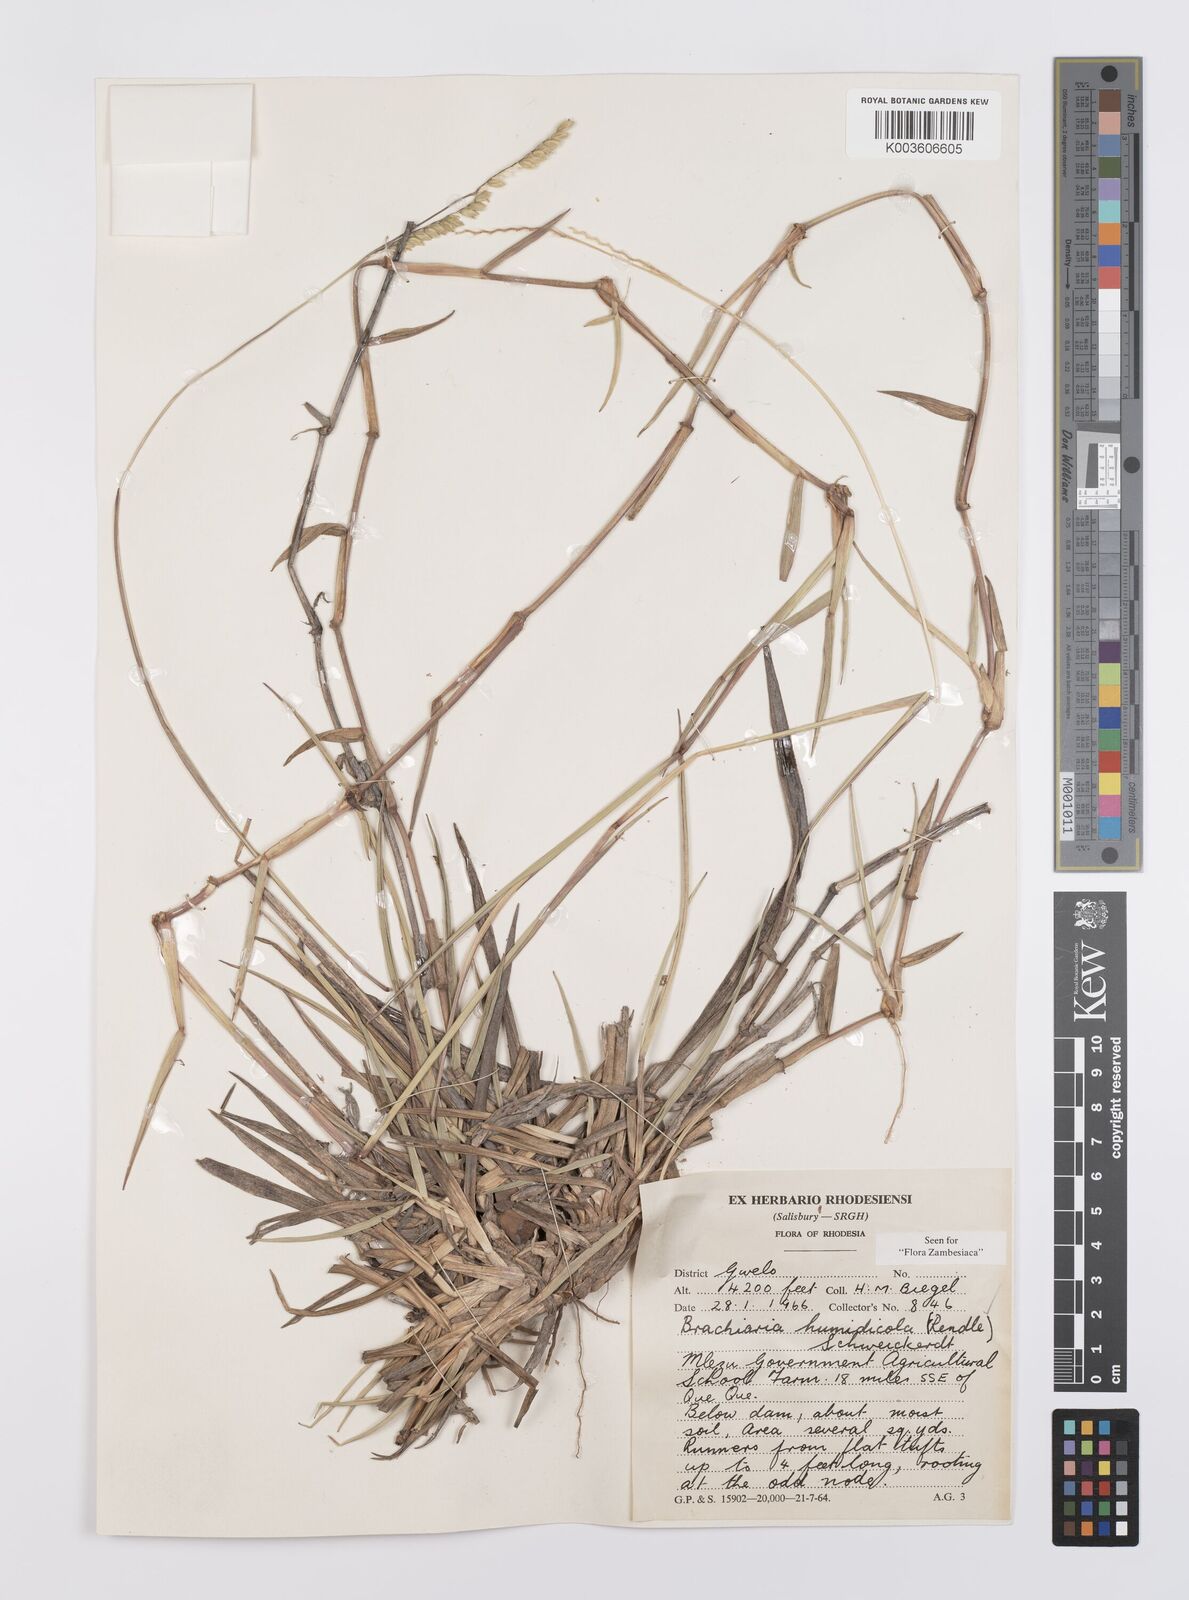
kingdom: Plantae
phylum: Tracheophyta
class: Liliopsida
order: Poales
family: Poaceae
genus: Urochloa
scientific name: Urochloa dictyoneura
